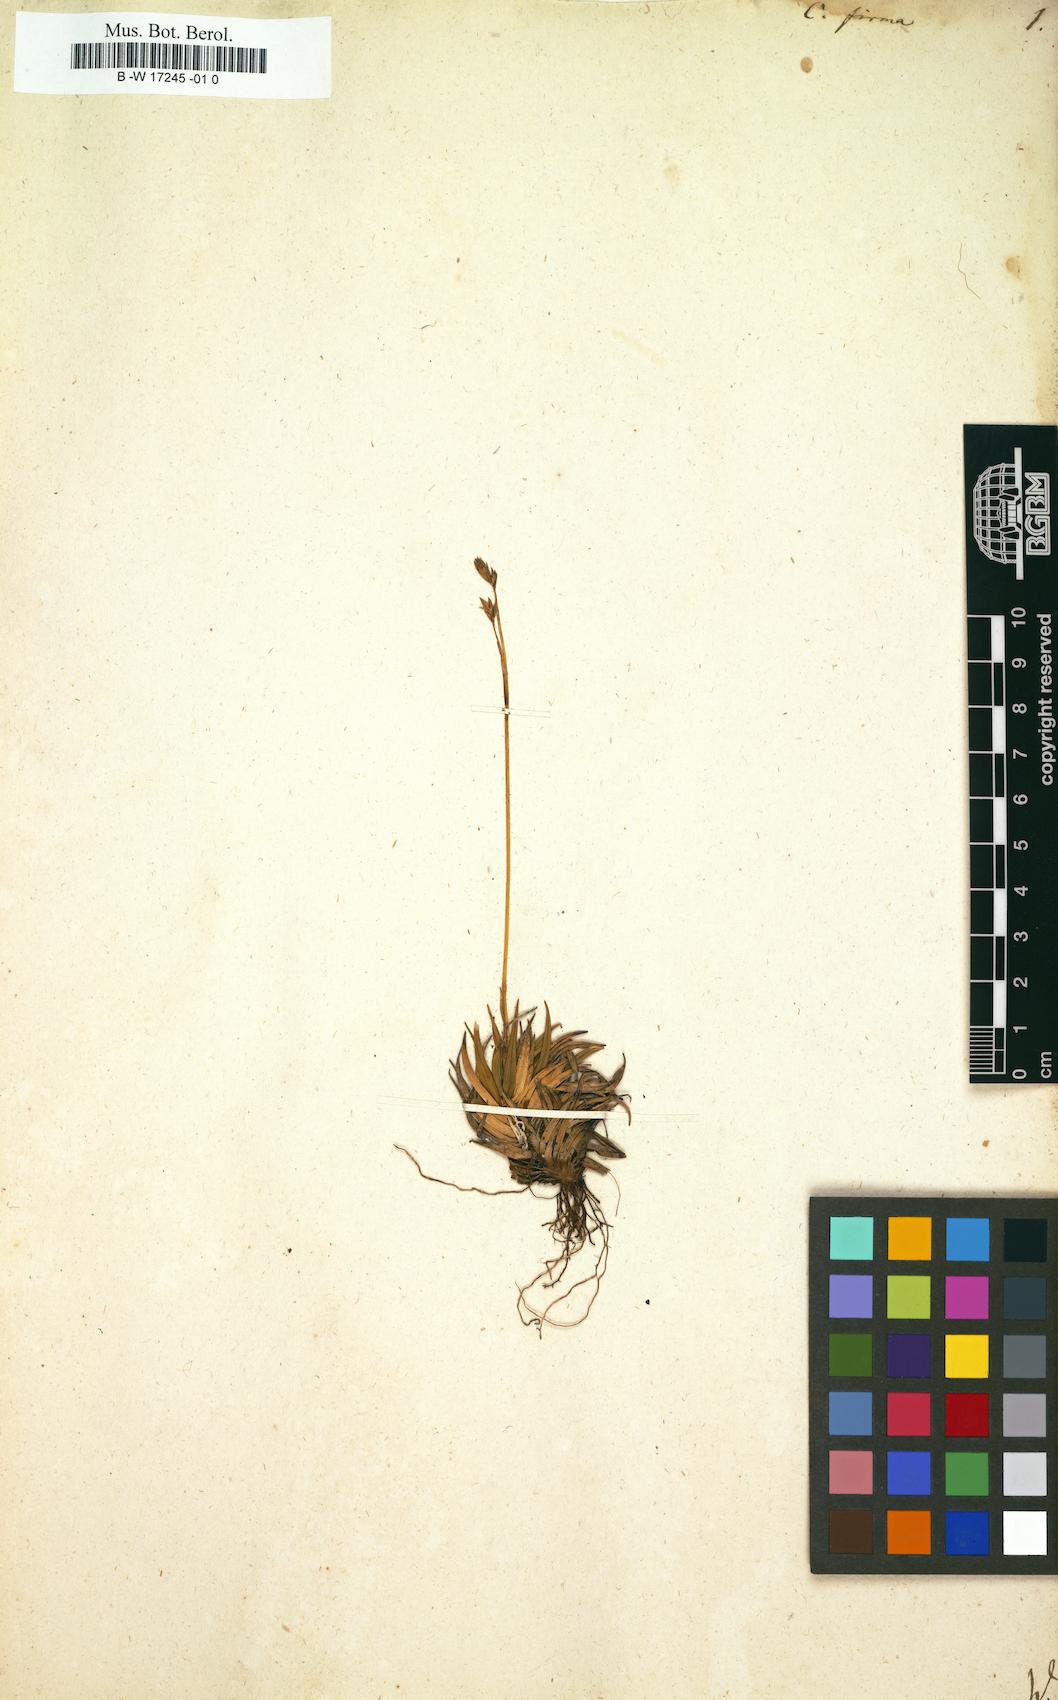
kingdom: Plantae
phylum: Tracheophyta
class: Liliopsida
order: Poales
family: Cyperaceae
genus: Carex
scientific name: Carex firma
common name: Dwarf pillow sedge
